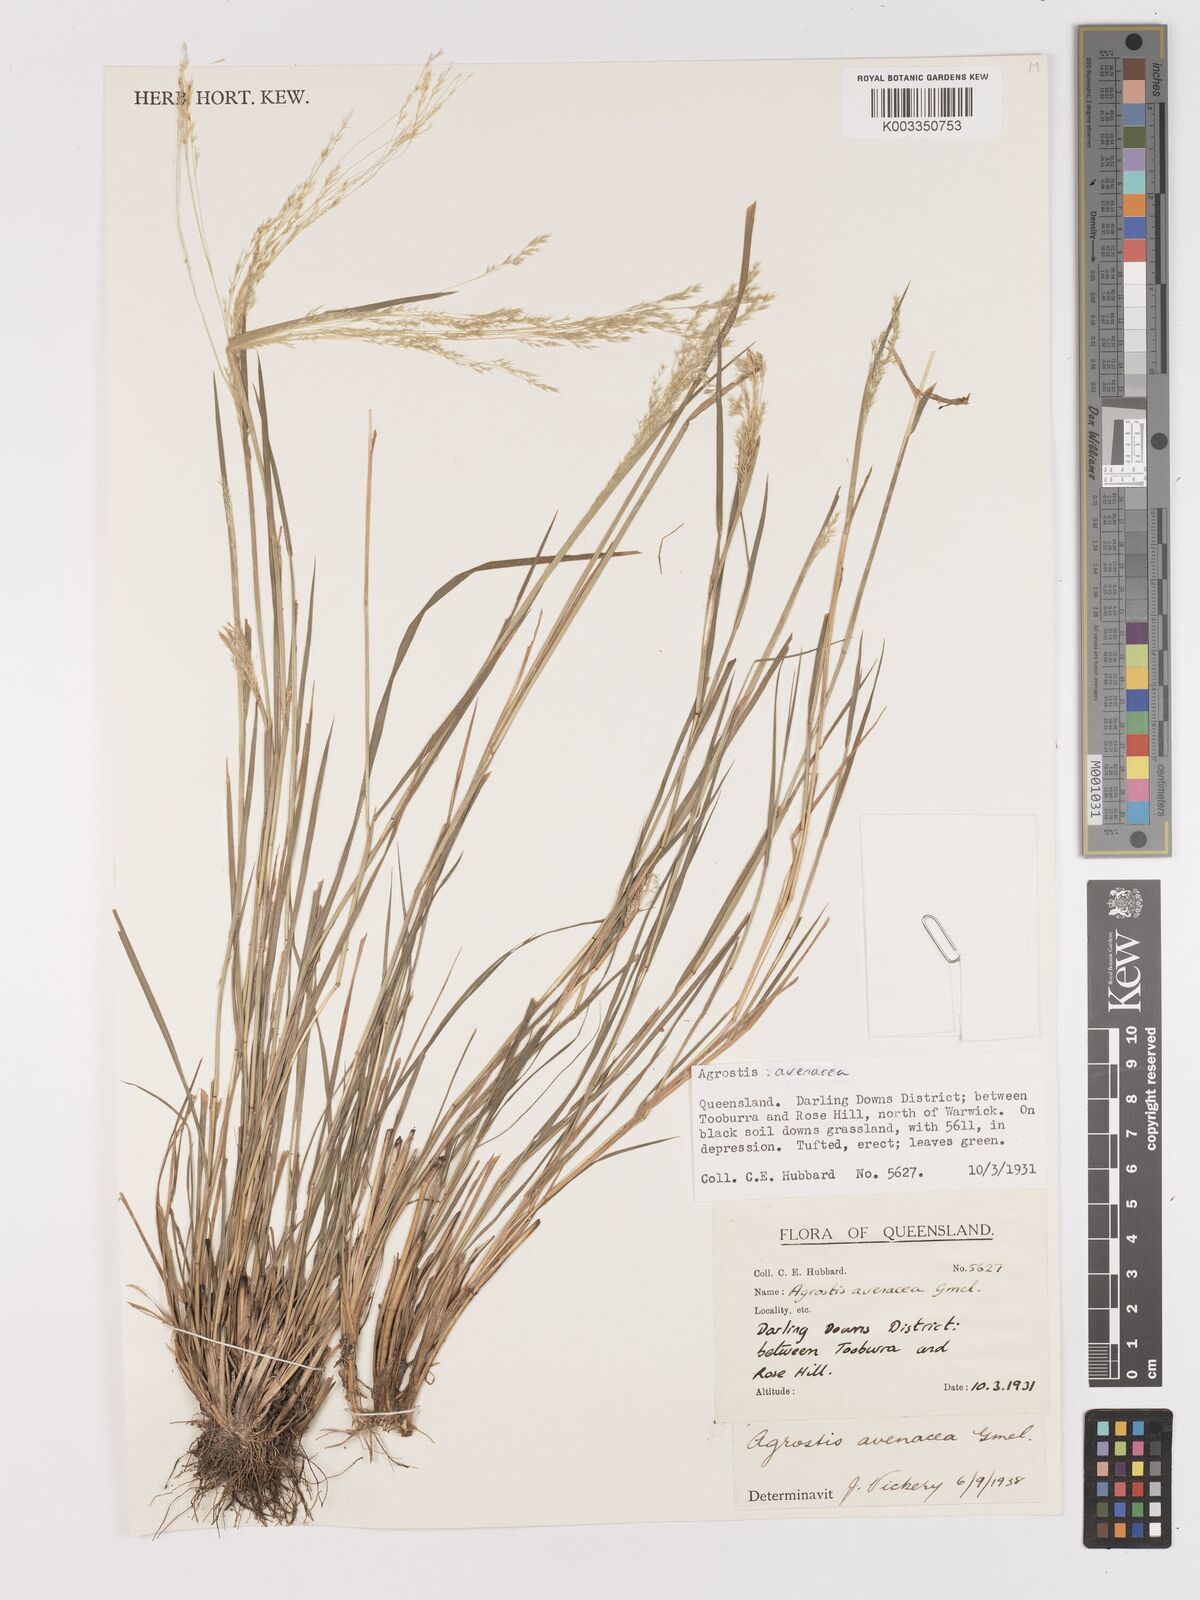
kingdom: Plantae
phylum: Tracheophyta
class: Liliopsida
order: Poales
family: Poaceae
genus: Lachnagrostis
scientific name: Lachnagrostis filiformis
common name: Bentgrass
